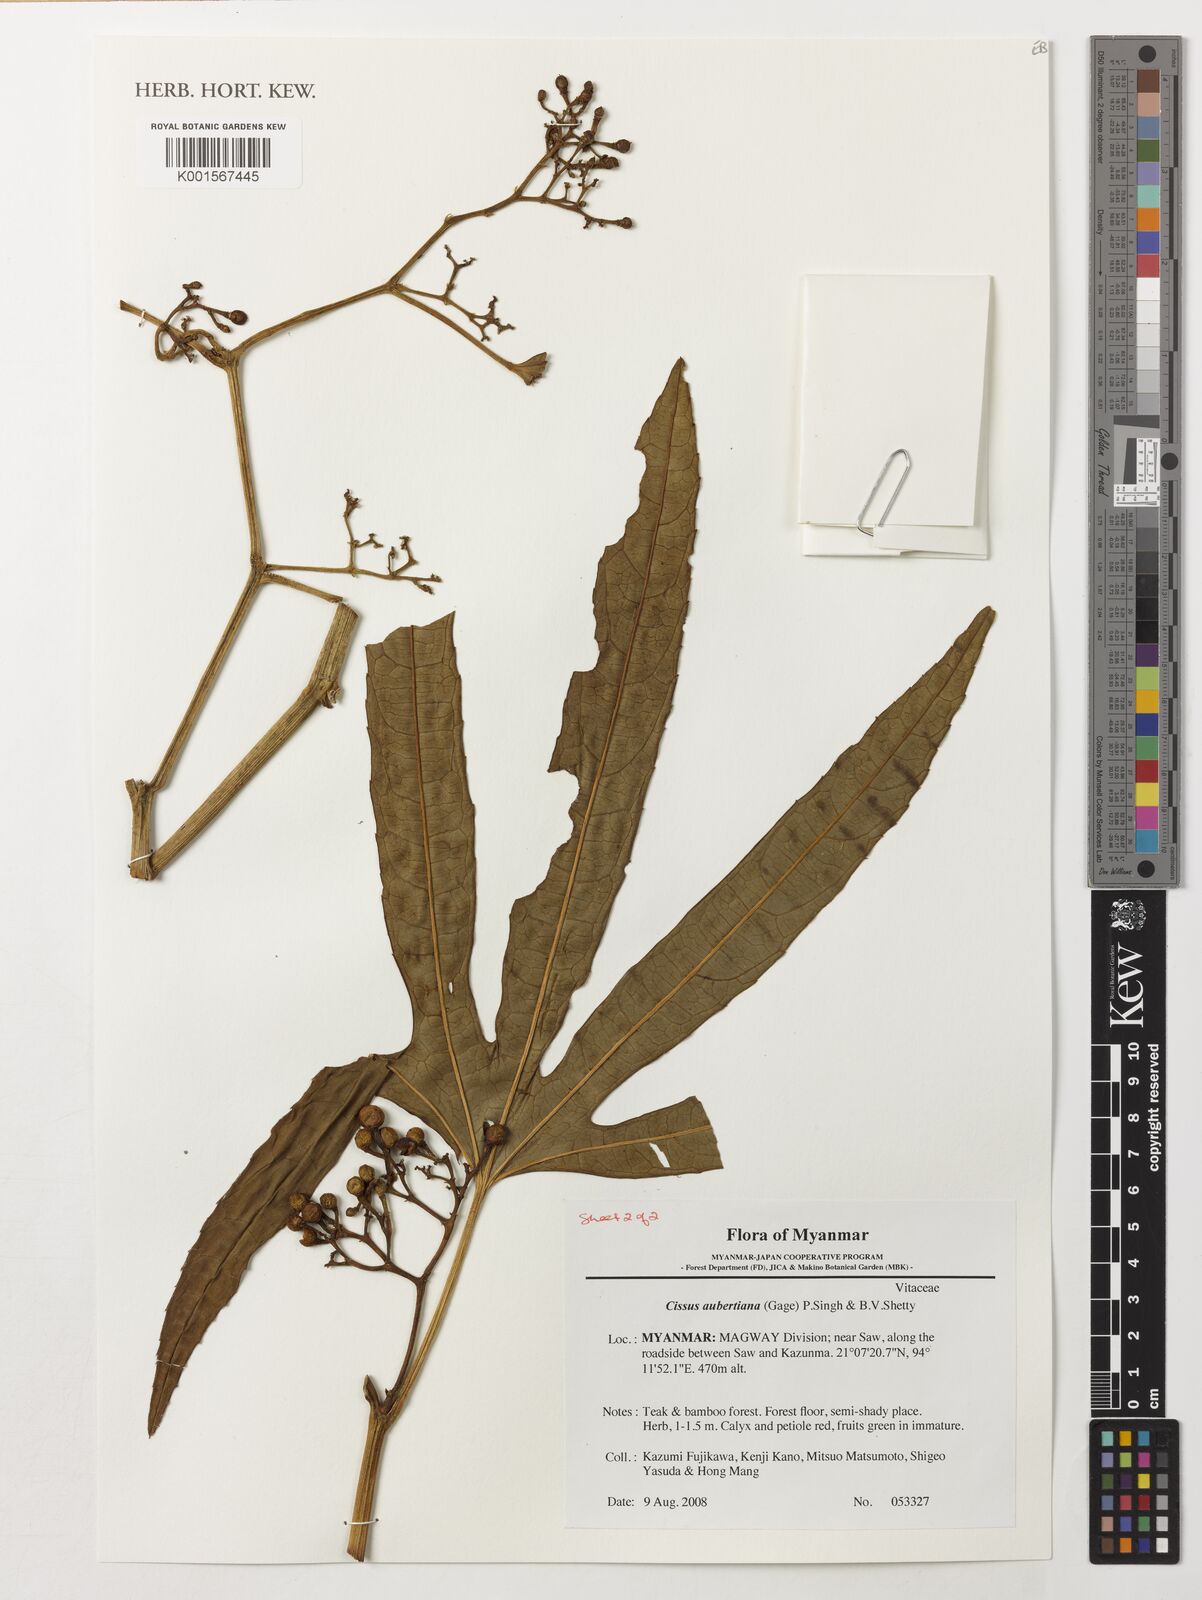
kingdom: Plantae
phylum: Tracheophyta
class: Magnoliopsida
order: Vitales
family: Vitaceae
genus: Cissus
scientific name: Cissus aubertiana
